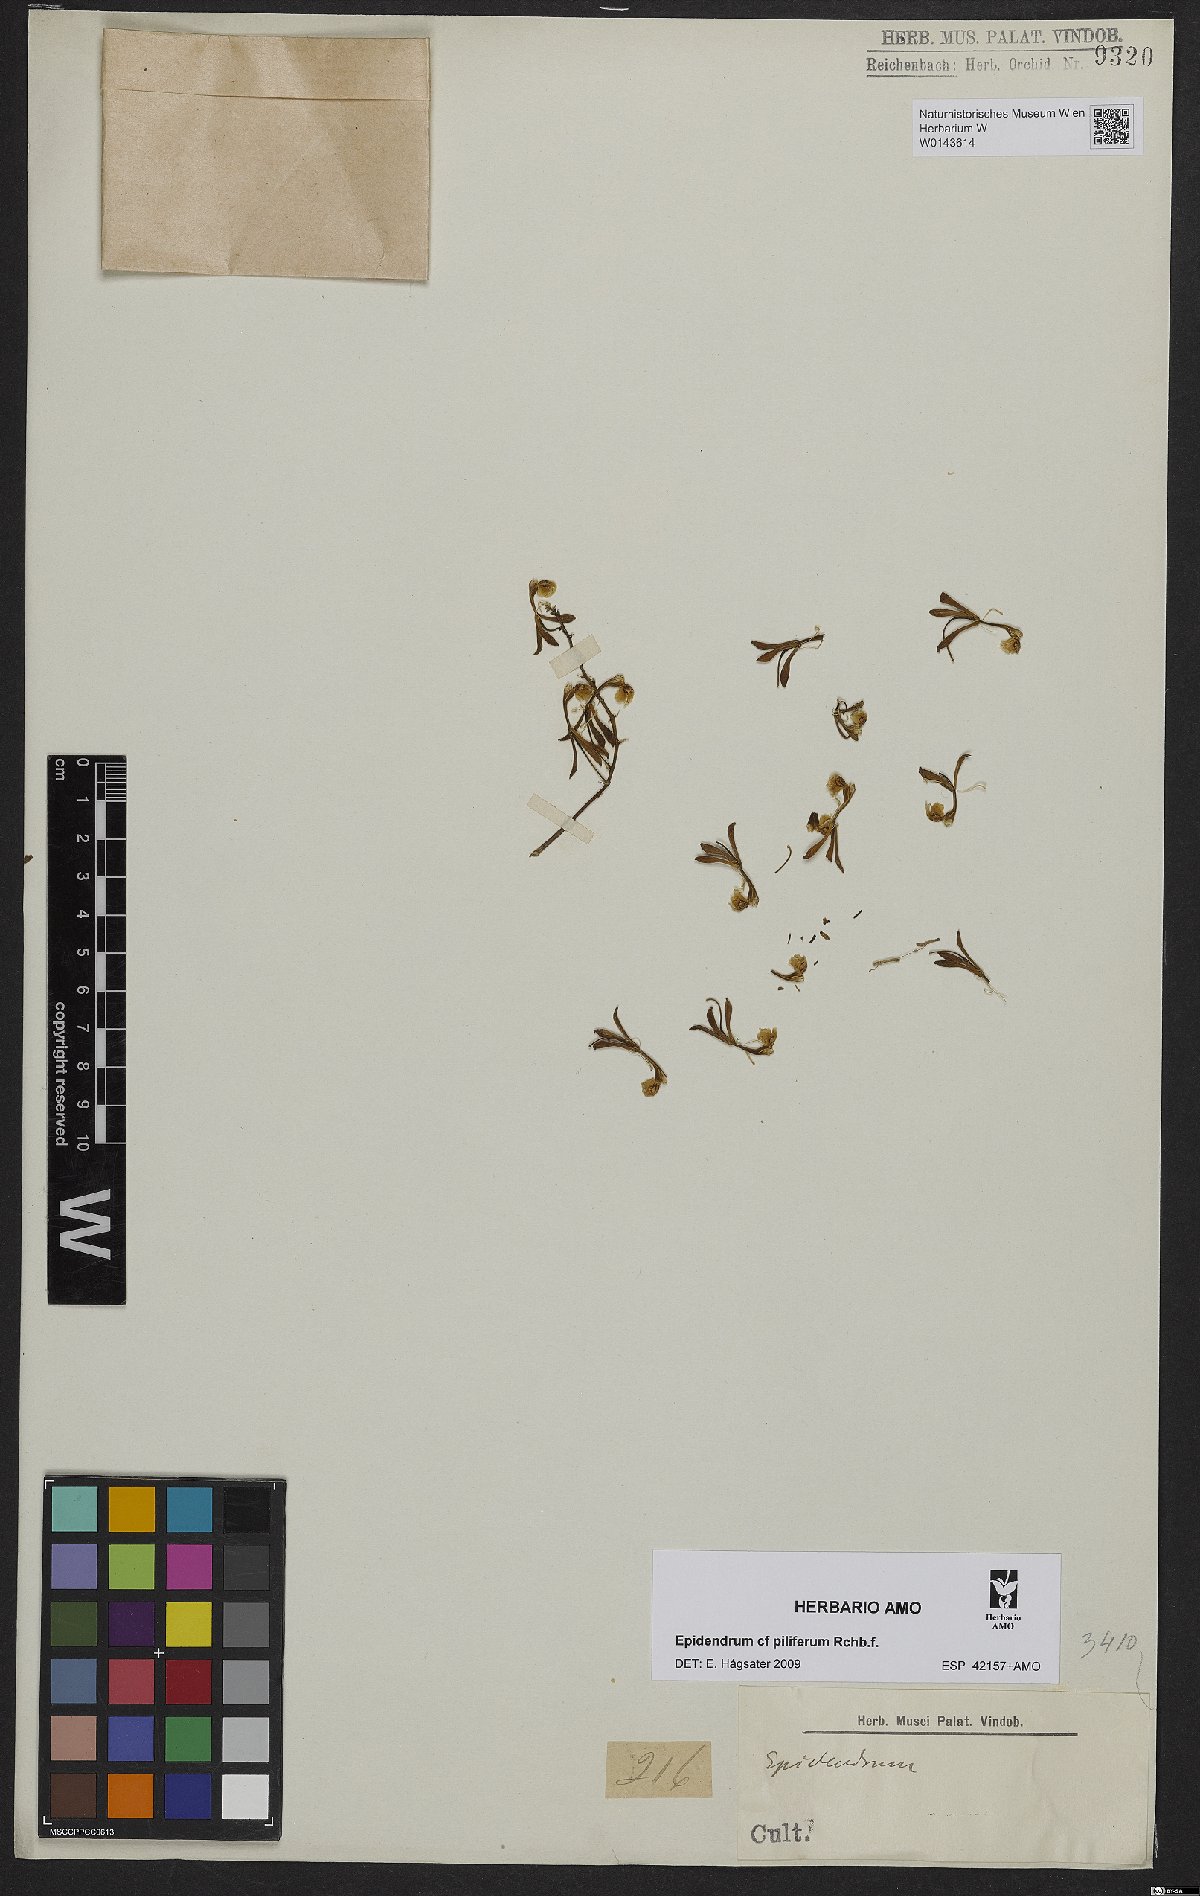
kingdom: Plantae
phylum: Tracheophyta
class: Liliopsida
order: Asparagales
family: Orchidaceae
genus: Epidendrum
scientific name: Epidendrum piliferum
